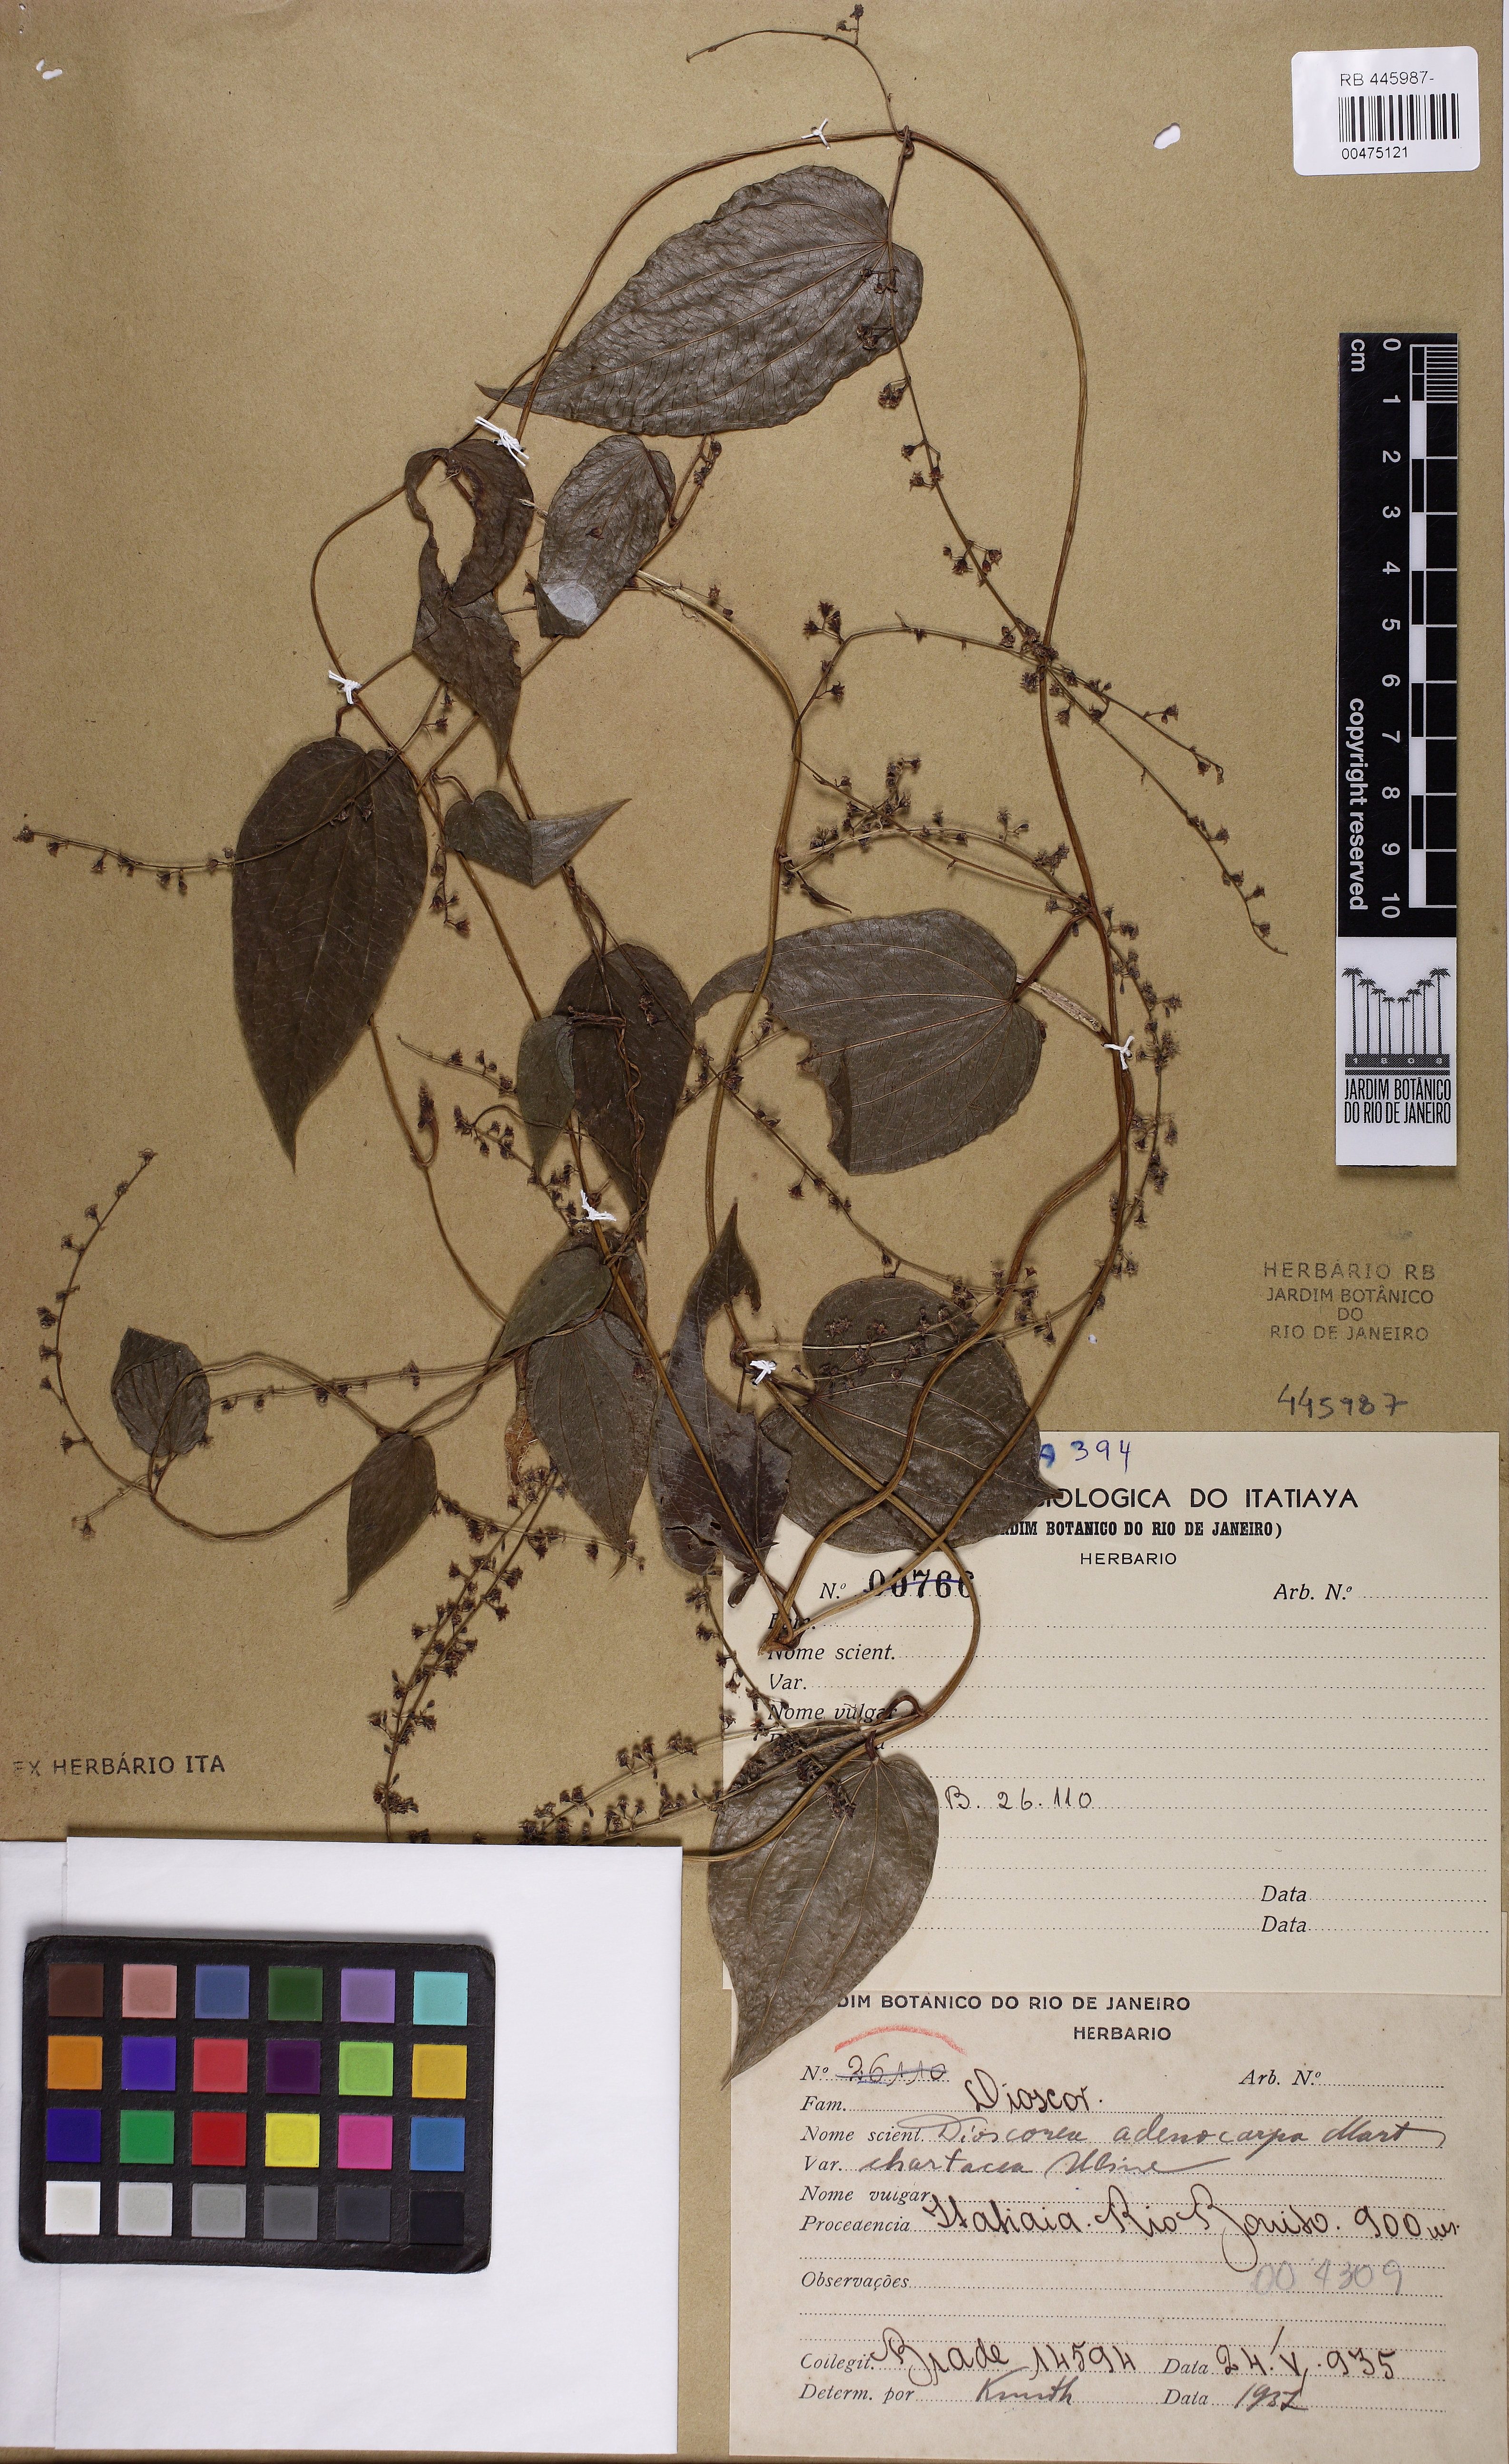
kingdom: Plantae
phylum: Tracheophyta
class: Liliopsida
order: Dioscoreales
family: Dioscoreaceae
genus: Dioscorea
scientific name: Dioscorea campos-portoi
